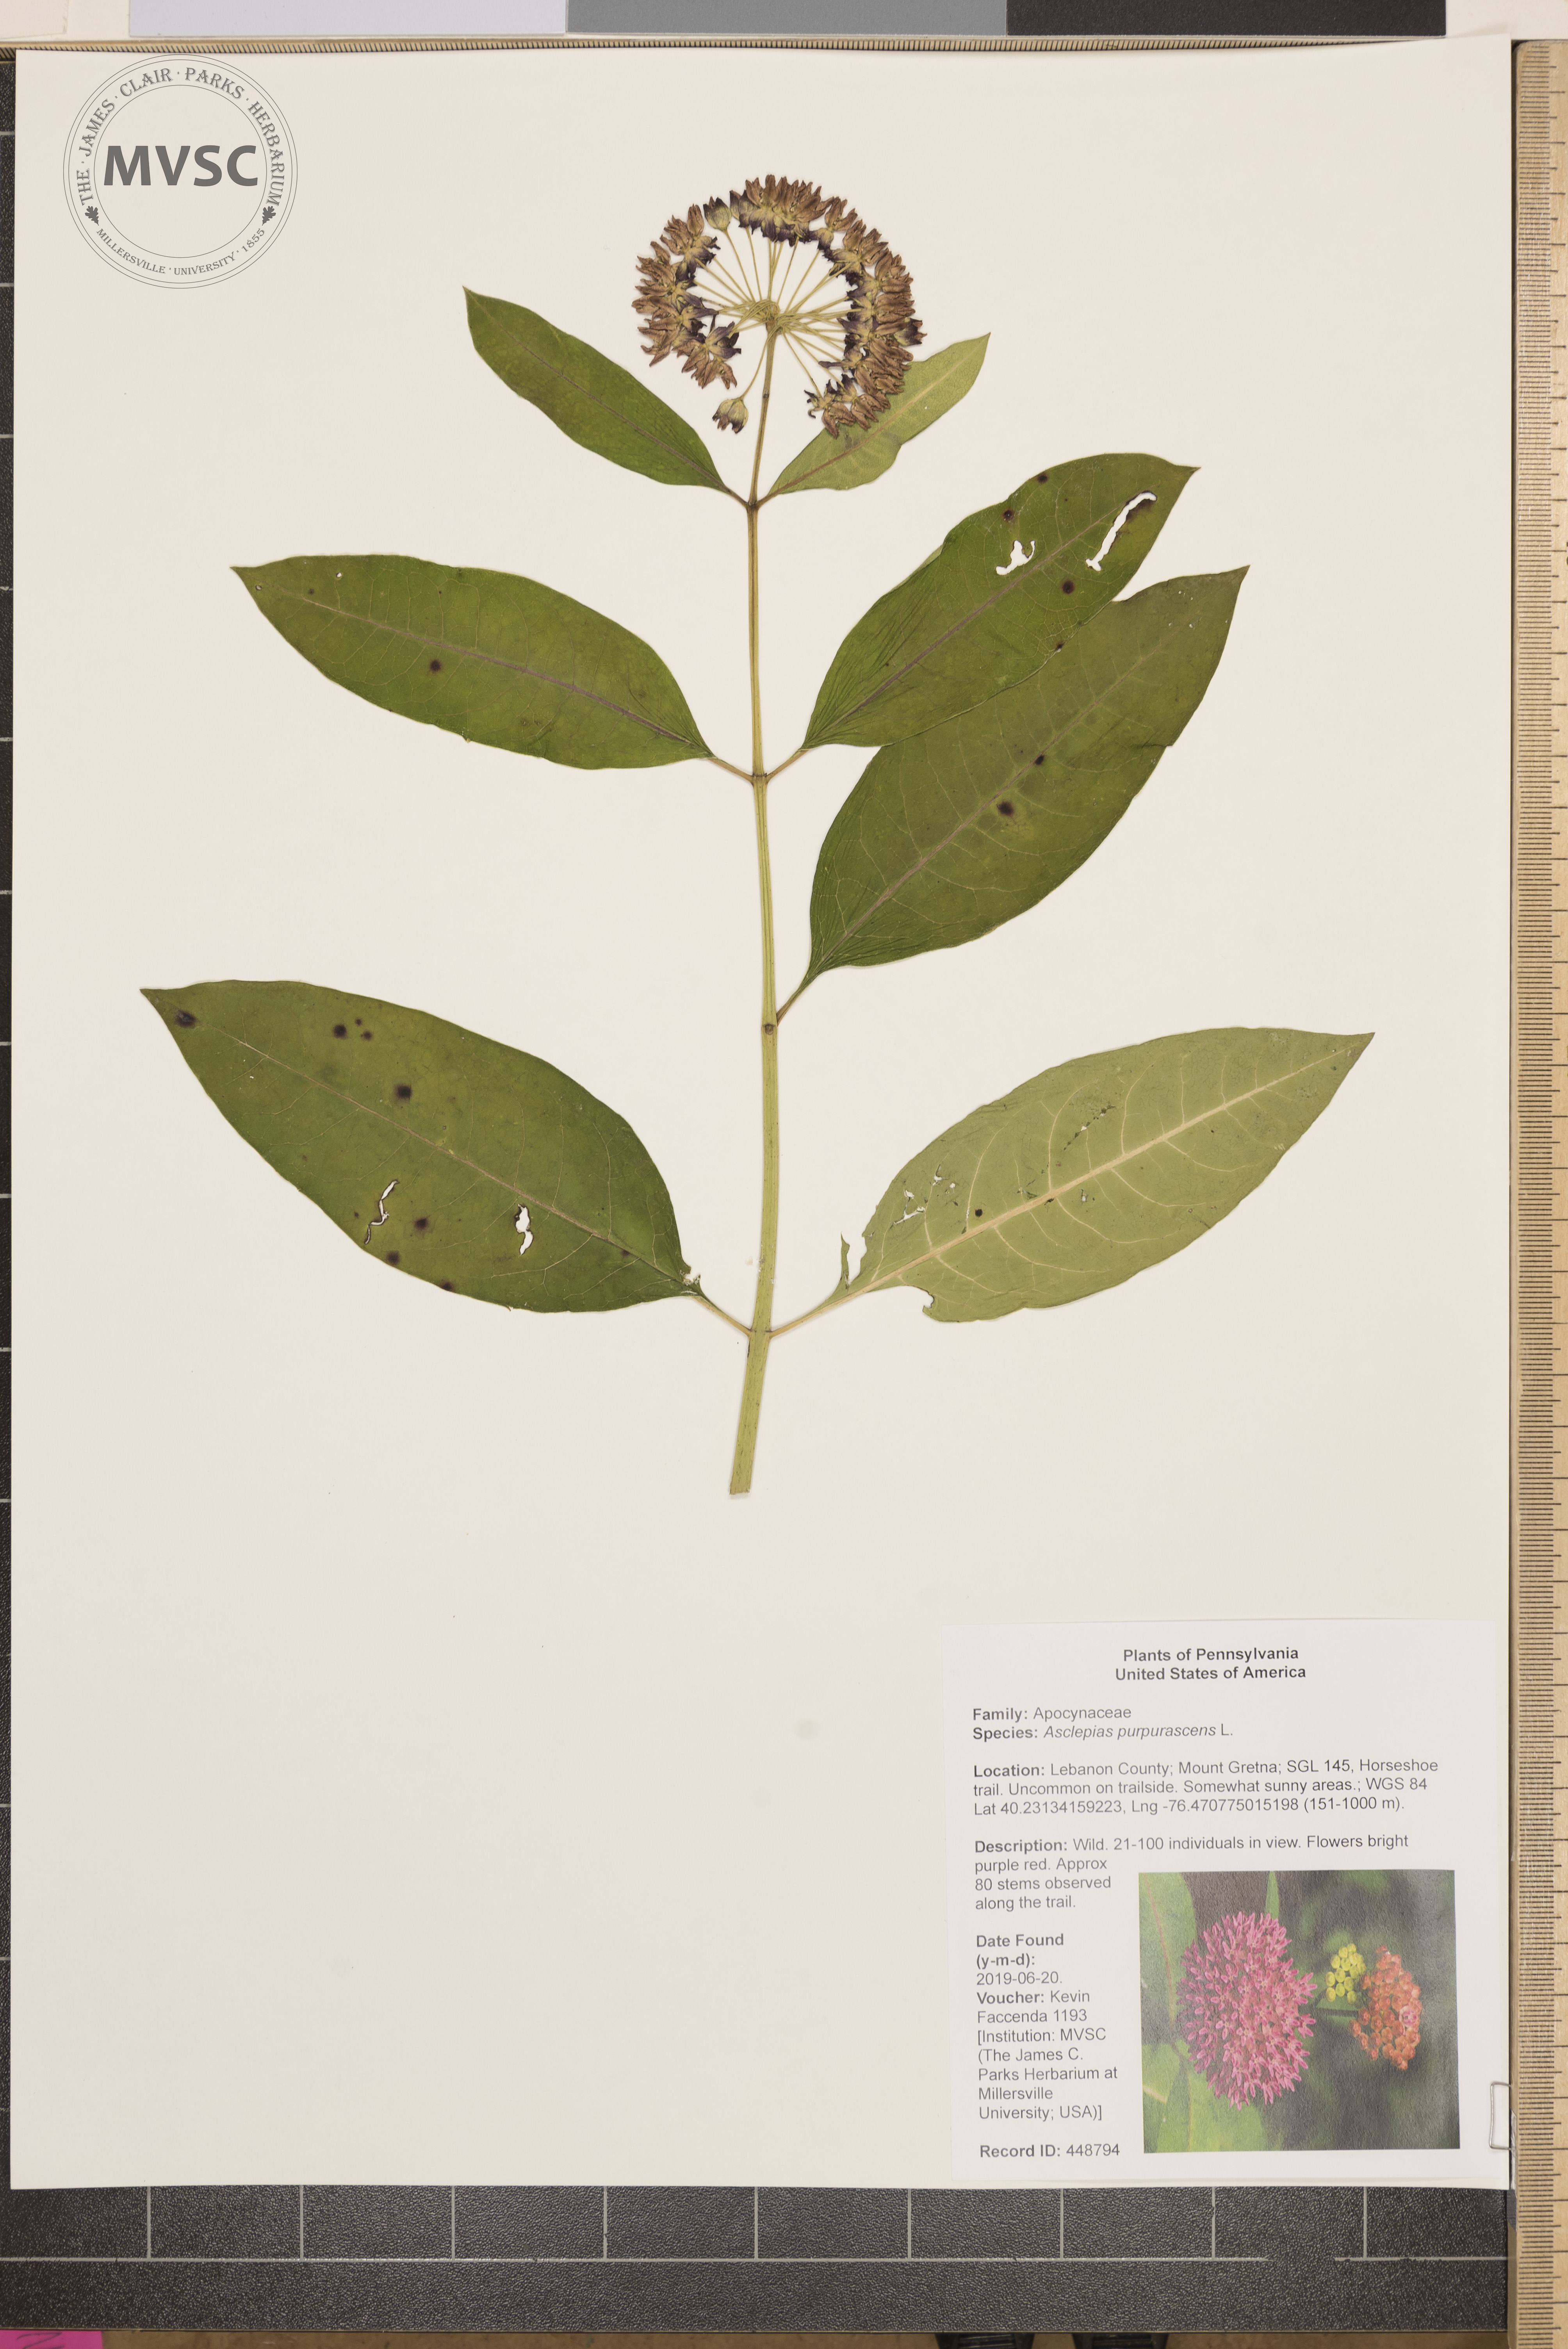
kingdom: Plantae
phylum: Tracheophyta
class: Magnoliopsida
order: Gentianales
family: Apocynaceae
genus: Asclepias
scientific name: Asclepias purpurascens
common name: Purple milkweed
